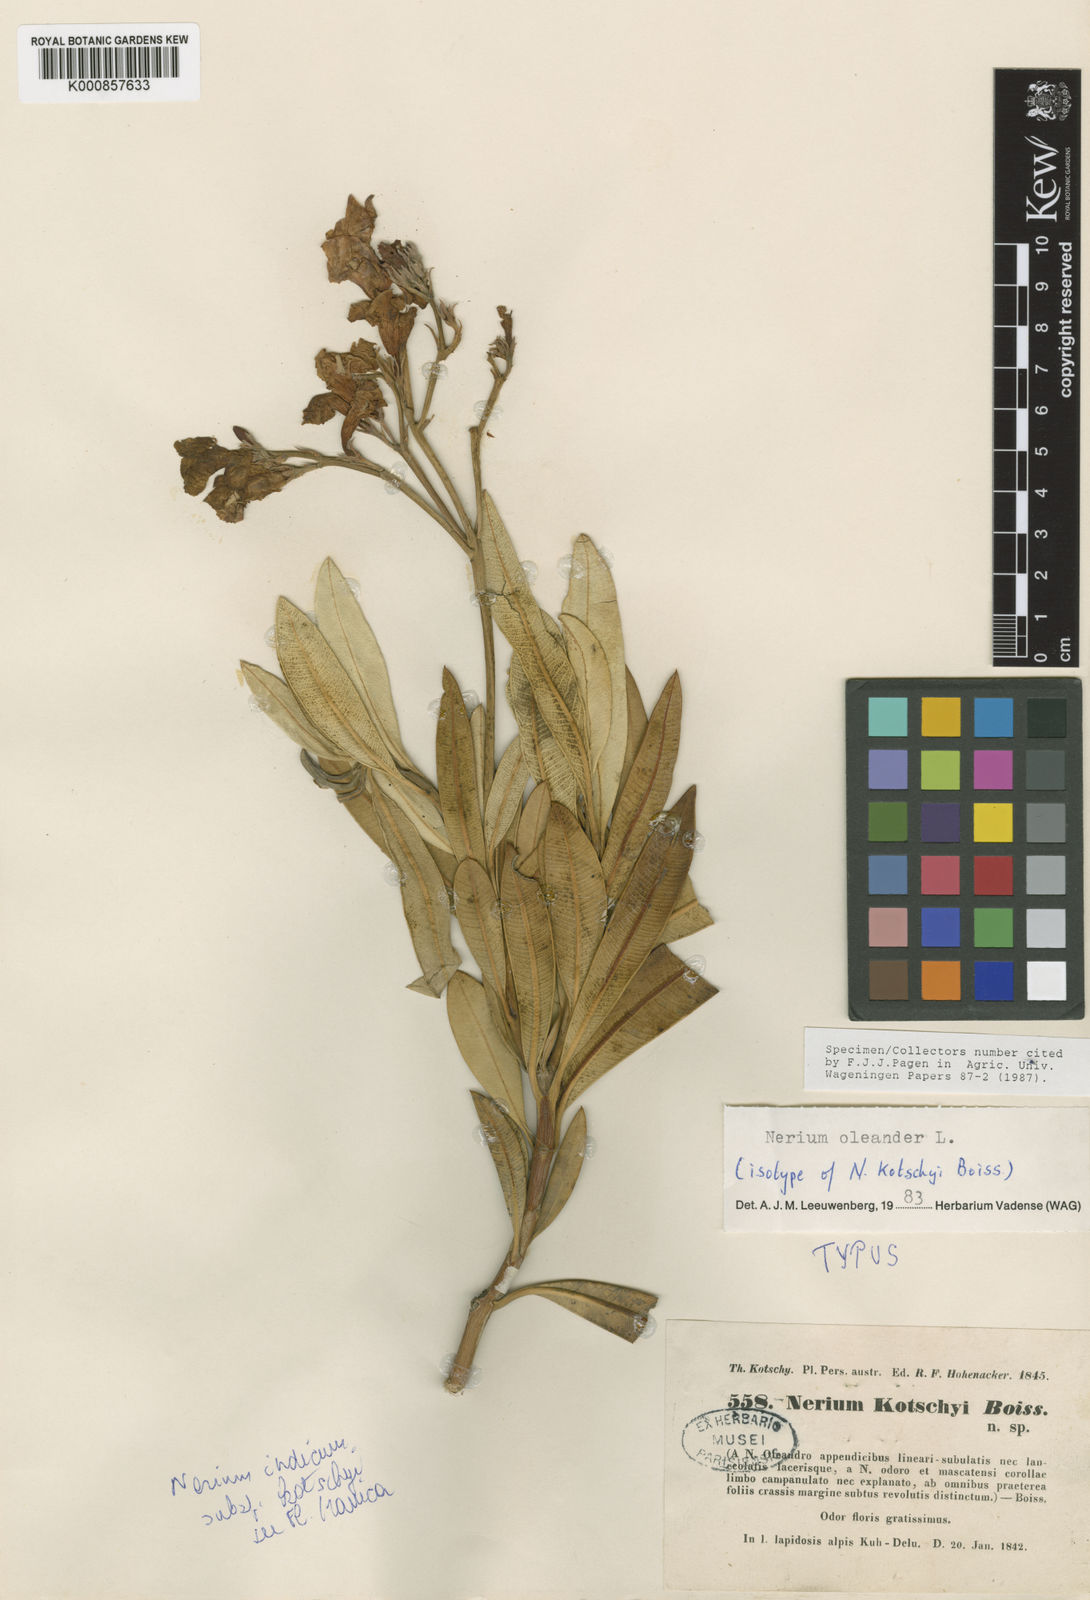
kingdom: Plantae
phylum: Tracheophyta
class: Magnoliopsida
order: Gentianales
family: Apocynaceae
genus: Nerium
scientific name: Nerium oleander
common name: Oleander
